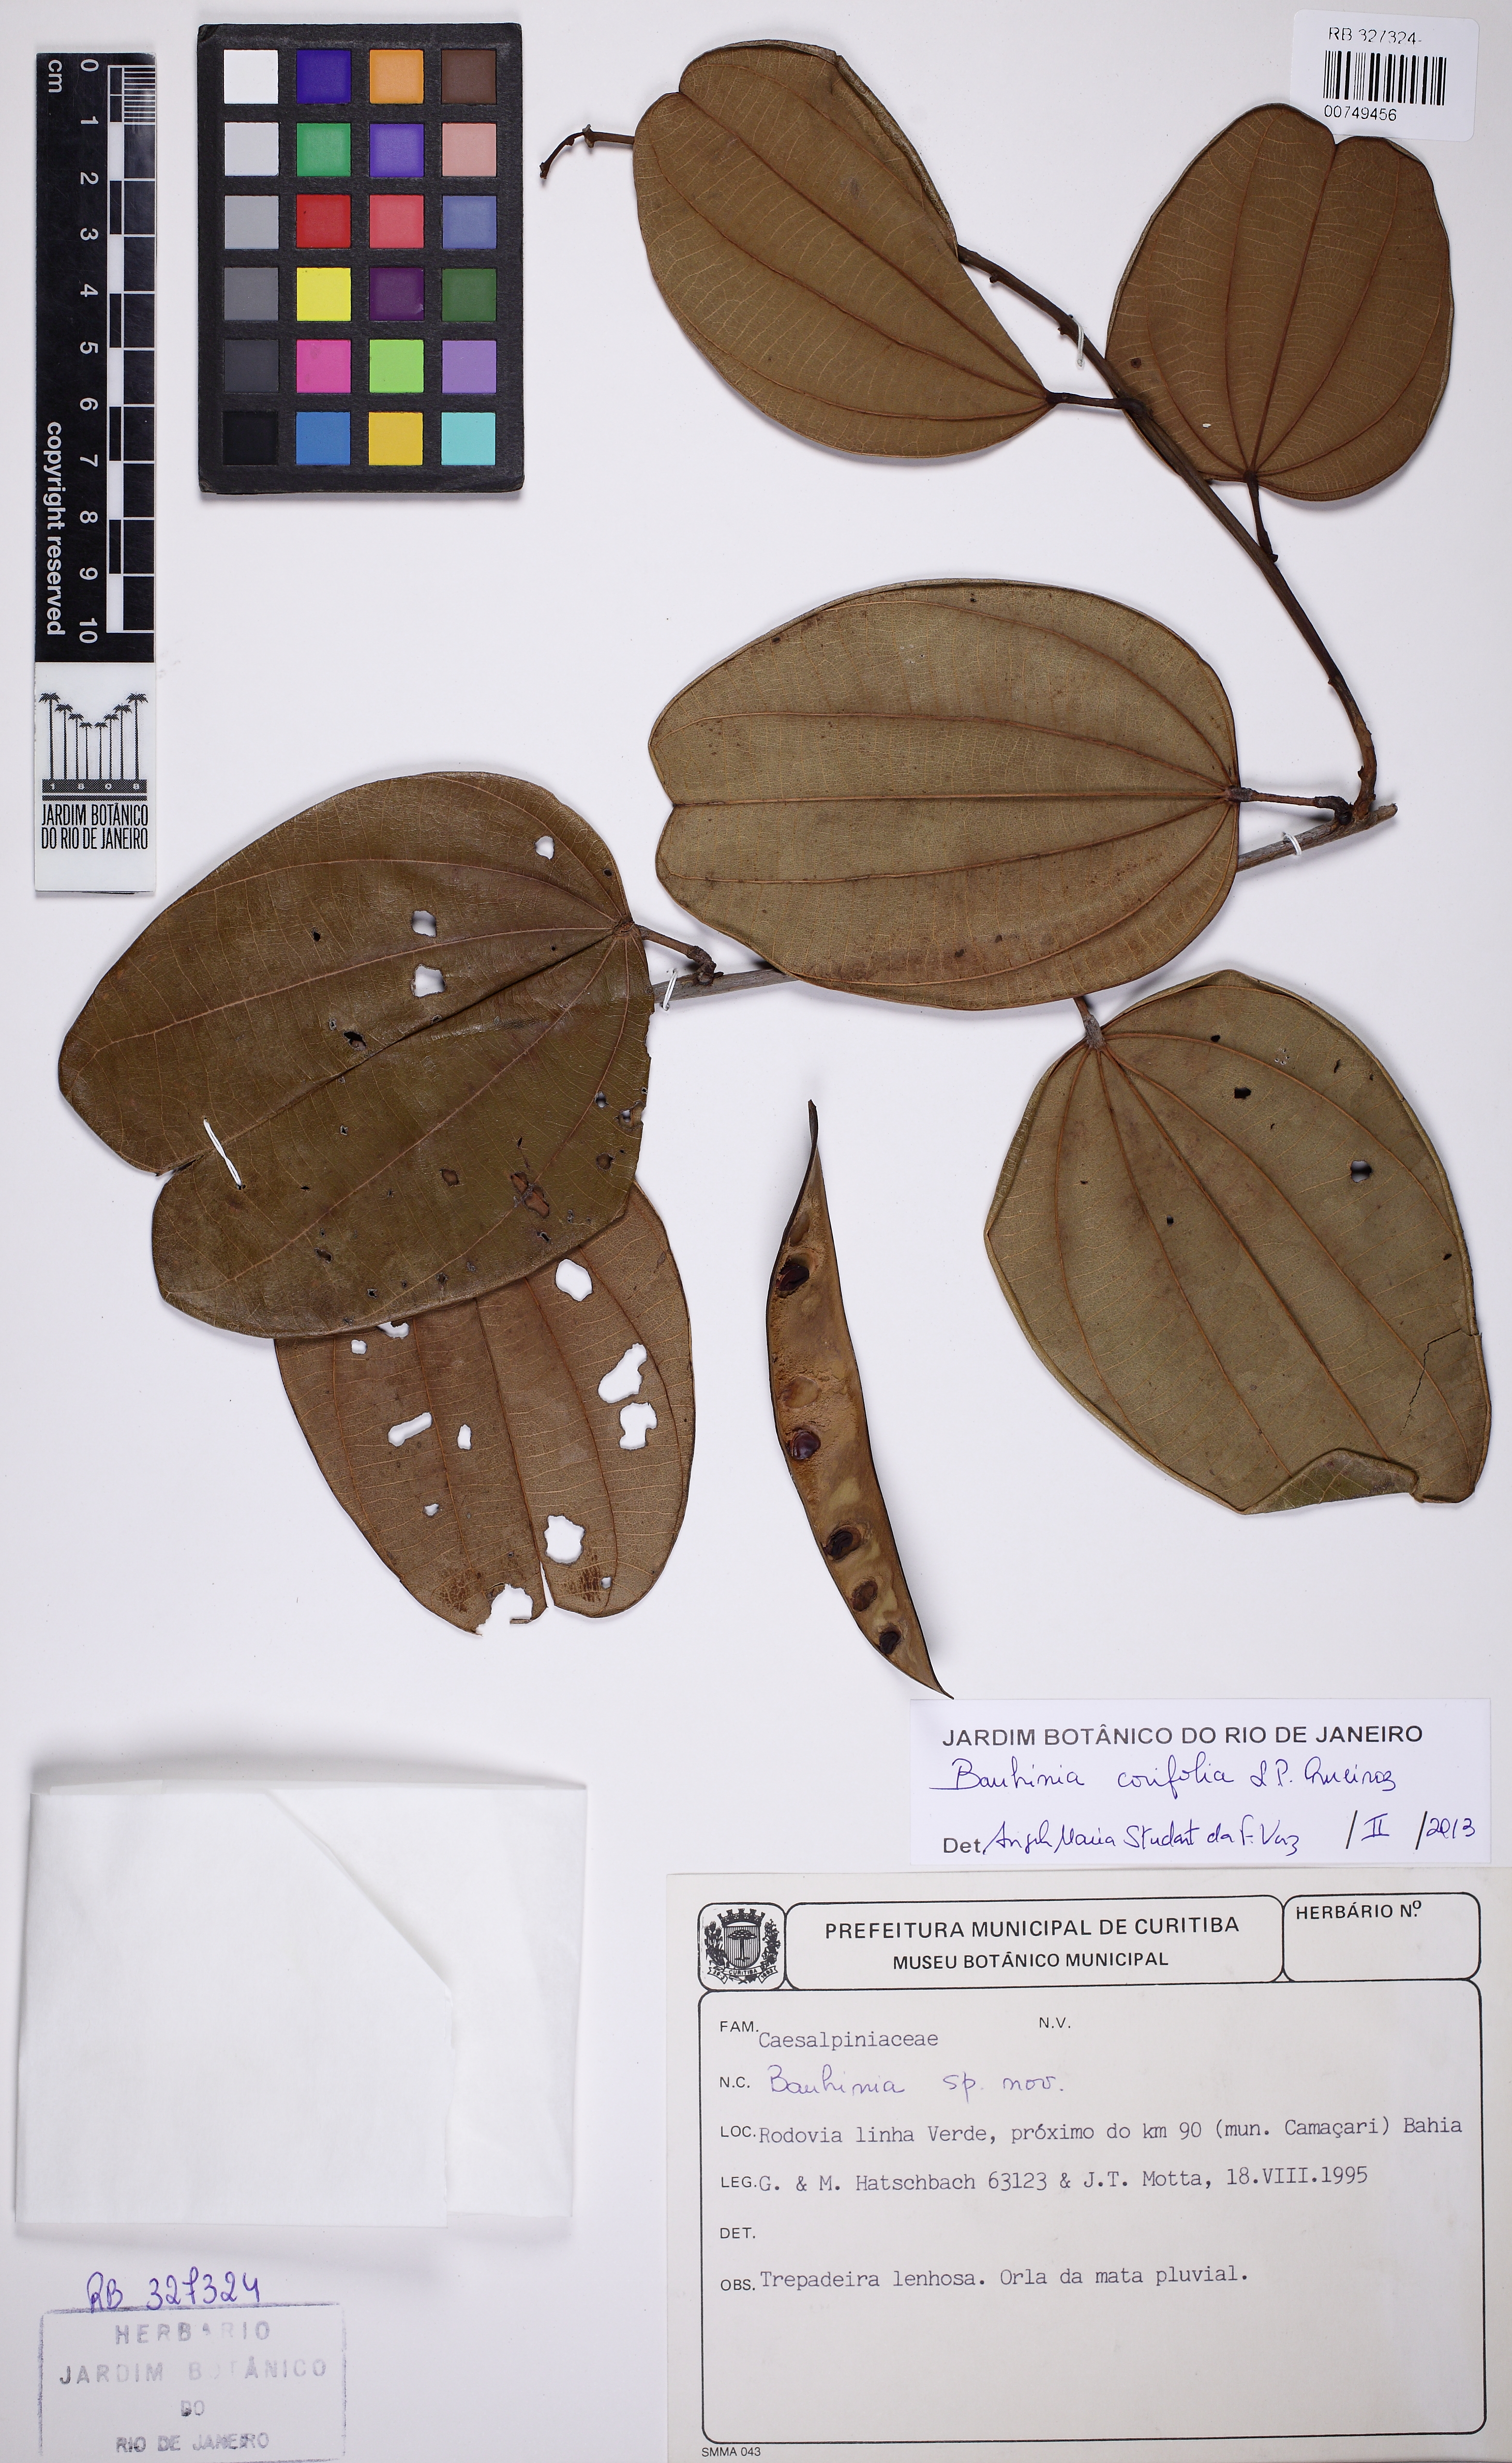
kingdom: Plantae
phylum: Tracheophyta
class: Magnoliopsida
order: Fabales
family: Fabaceae
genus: Bauhinia
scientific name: Bauhinia corifolia
